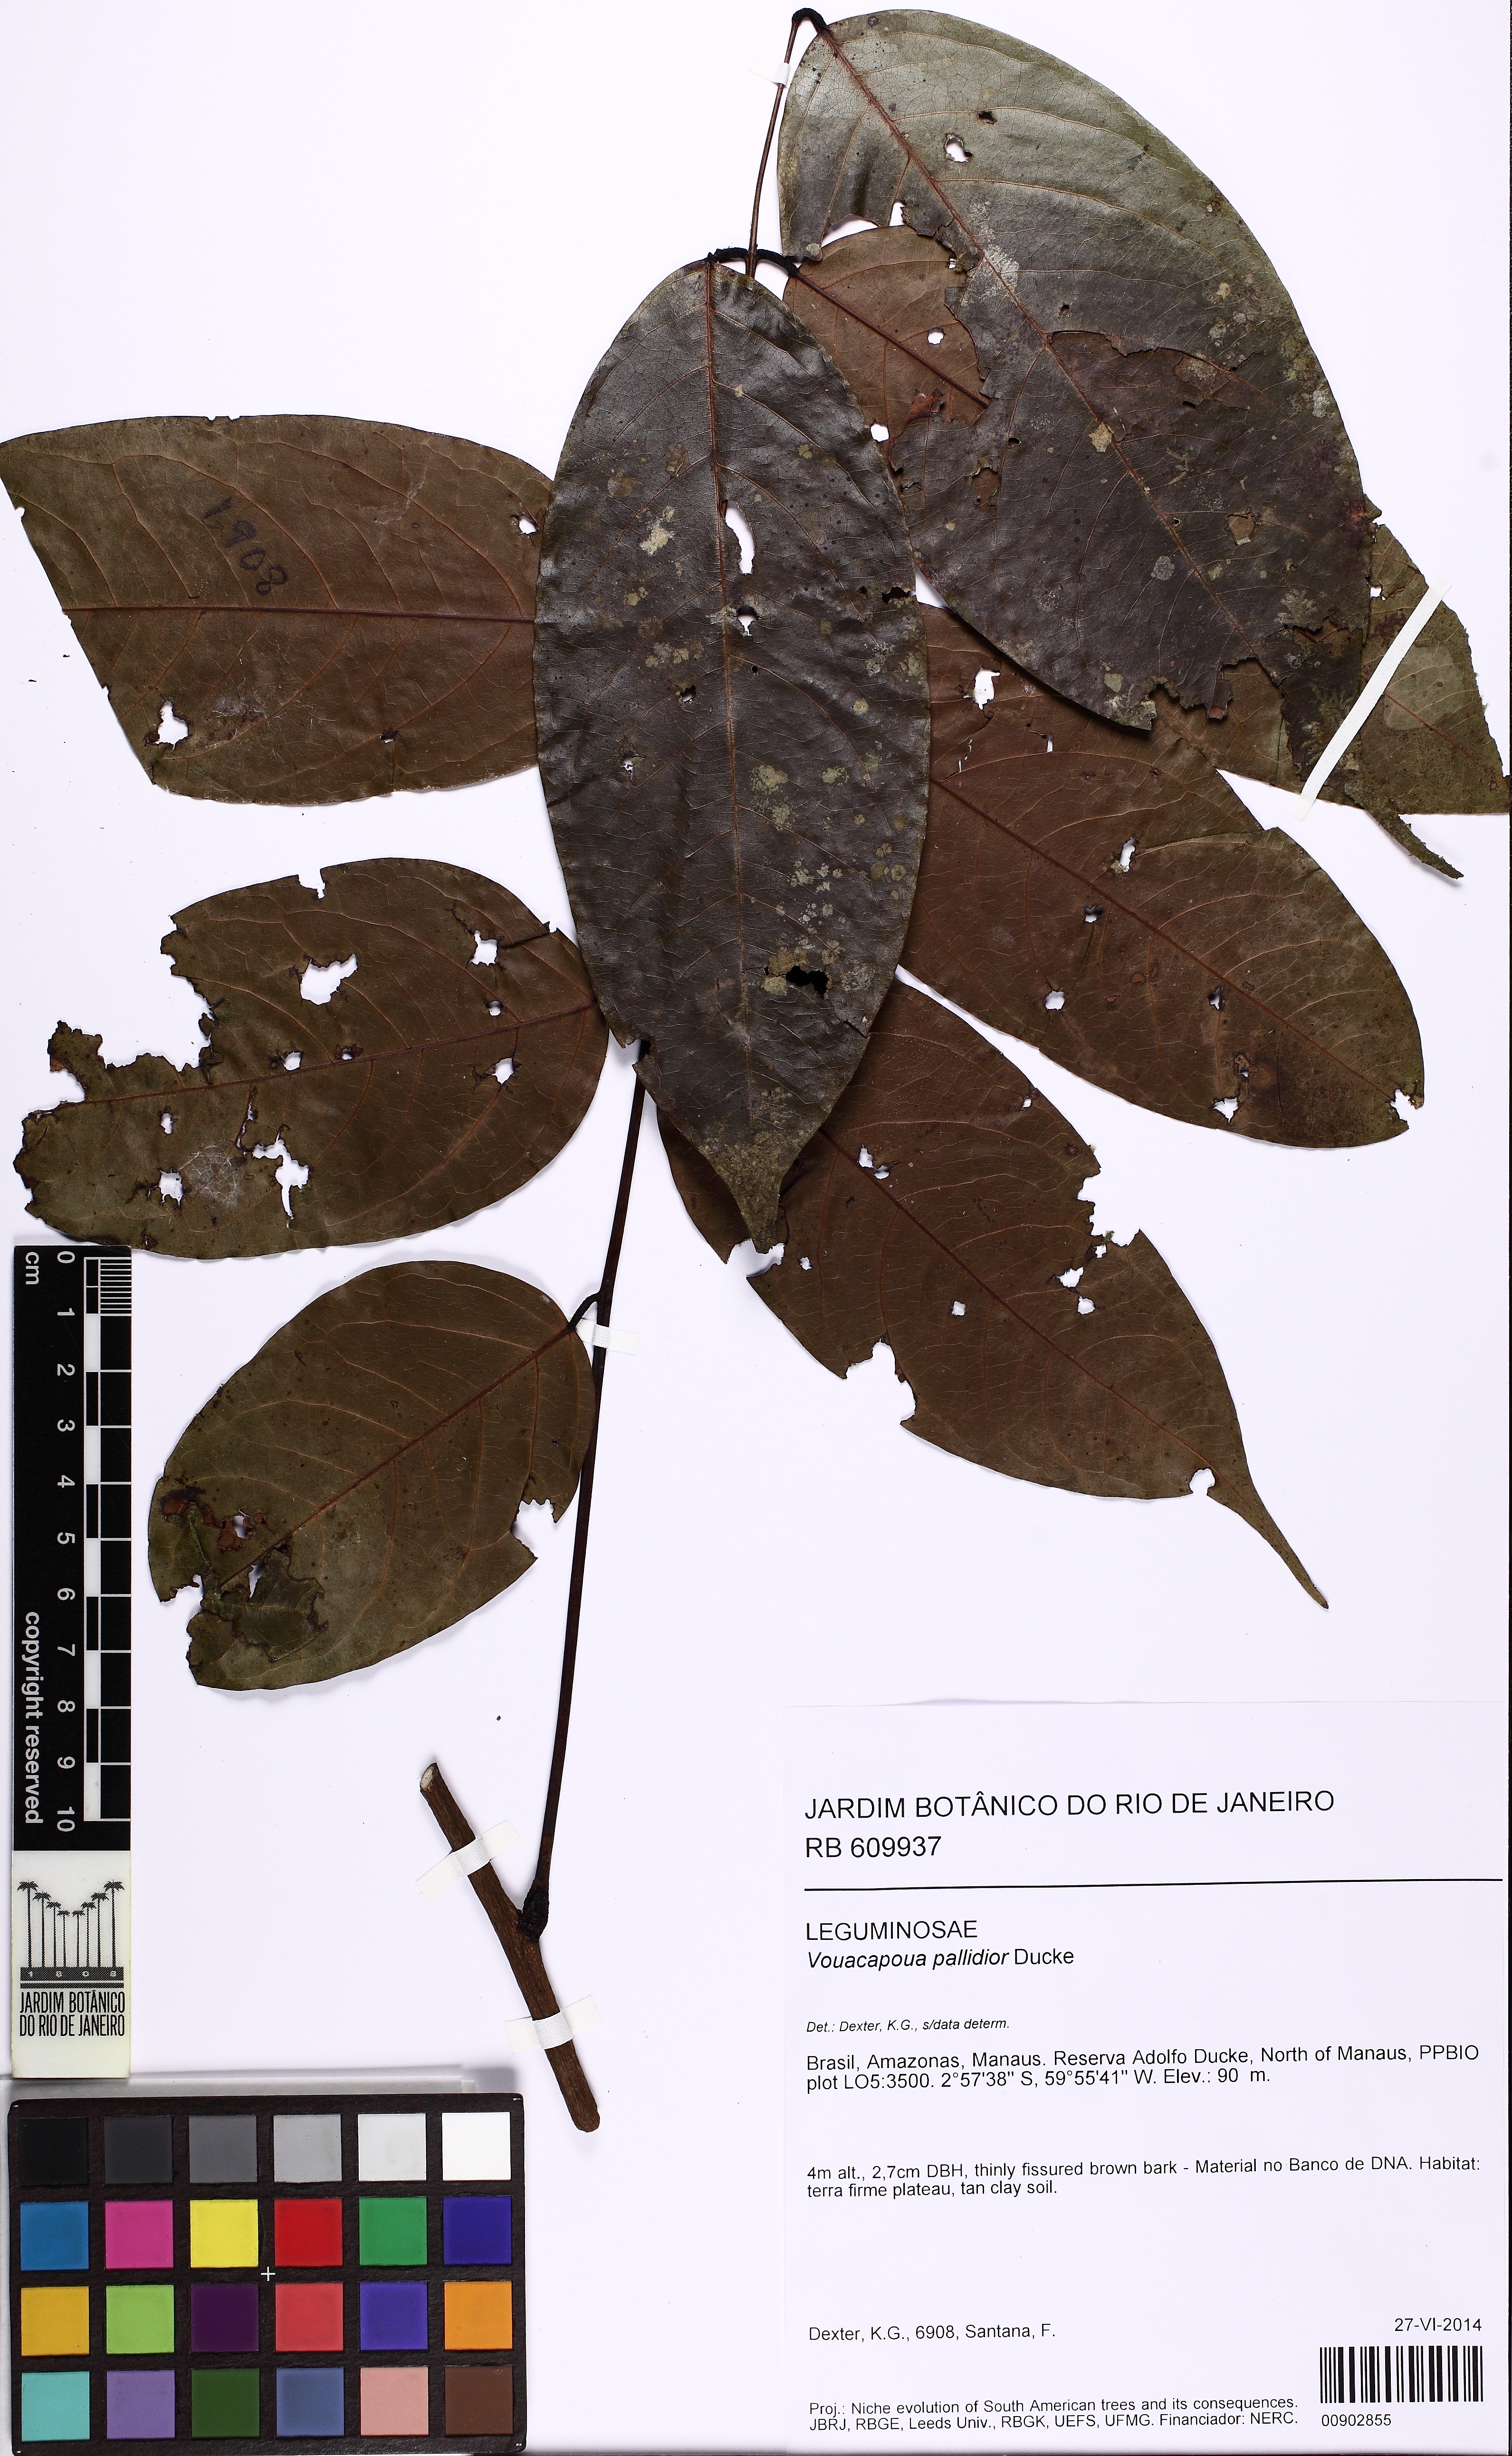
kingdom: Plantae
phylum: Tracheophyta
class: Magnoliopsida
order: Fabales
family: Fabaceae
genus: Vouacapoua
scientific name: Vouacapoua pallidior
